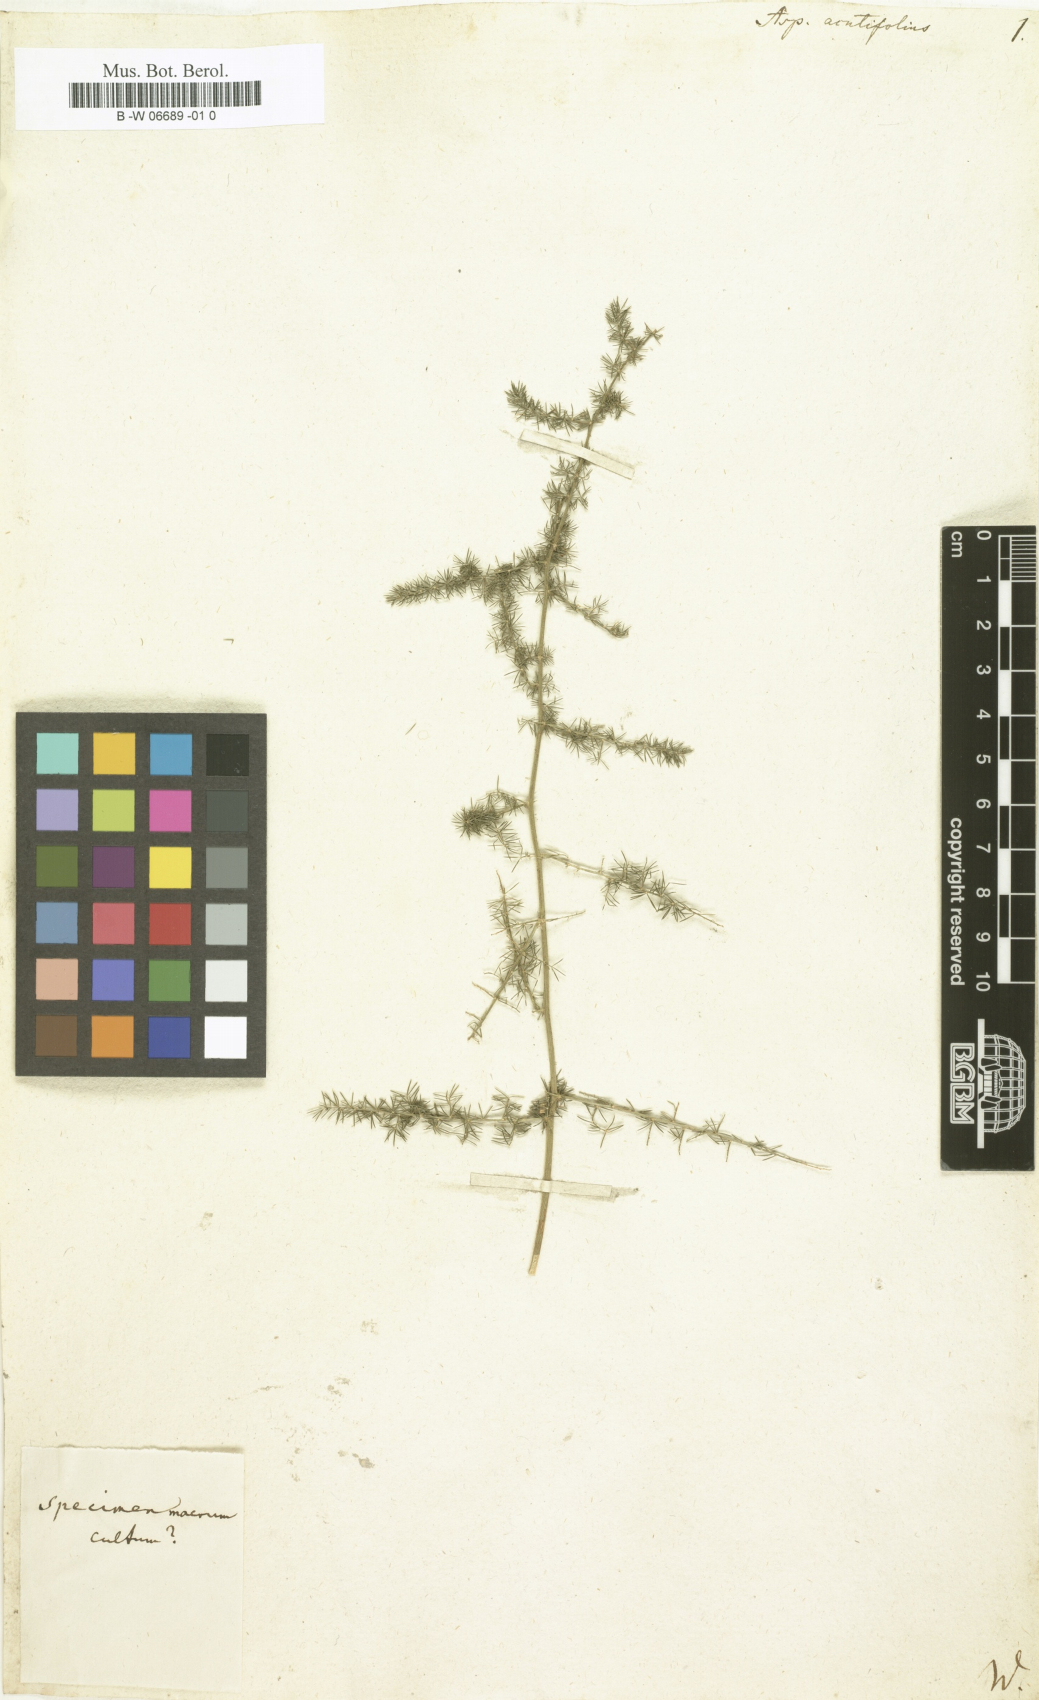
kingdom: Plantae
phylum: Tracheophyta
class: Liliopsida
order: Asparagales
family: Asparagaceae
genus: Asparagus
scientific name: Asparagus acutifolius
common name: Wild asparagus
